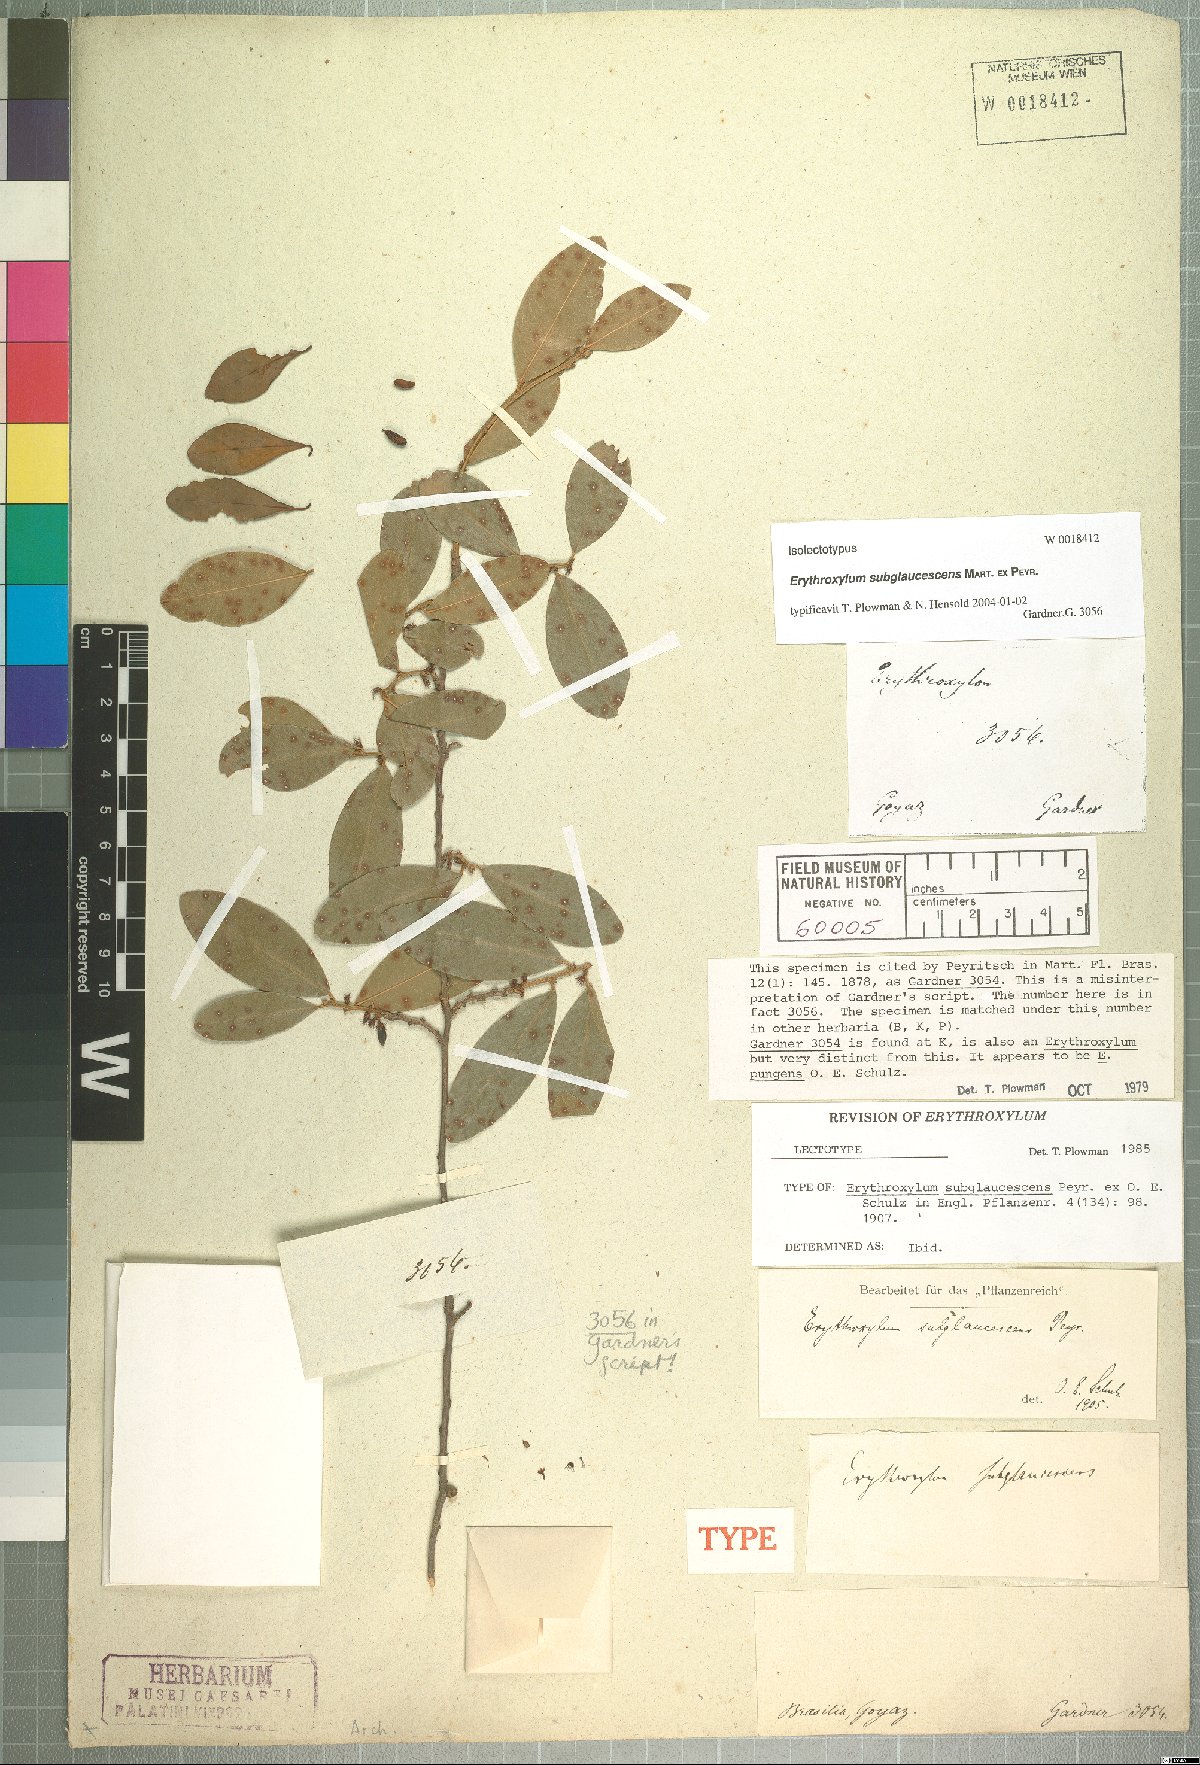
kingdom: Plantae
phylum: Tracheophyta
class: Magnoliopsida
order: Malpighiales
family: Erythroxylaceae
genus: Erythroxylum
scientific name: Erythroxylum subglaucescens
